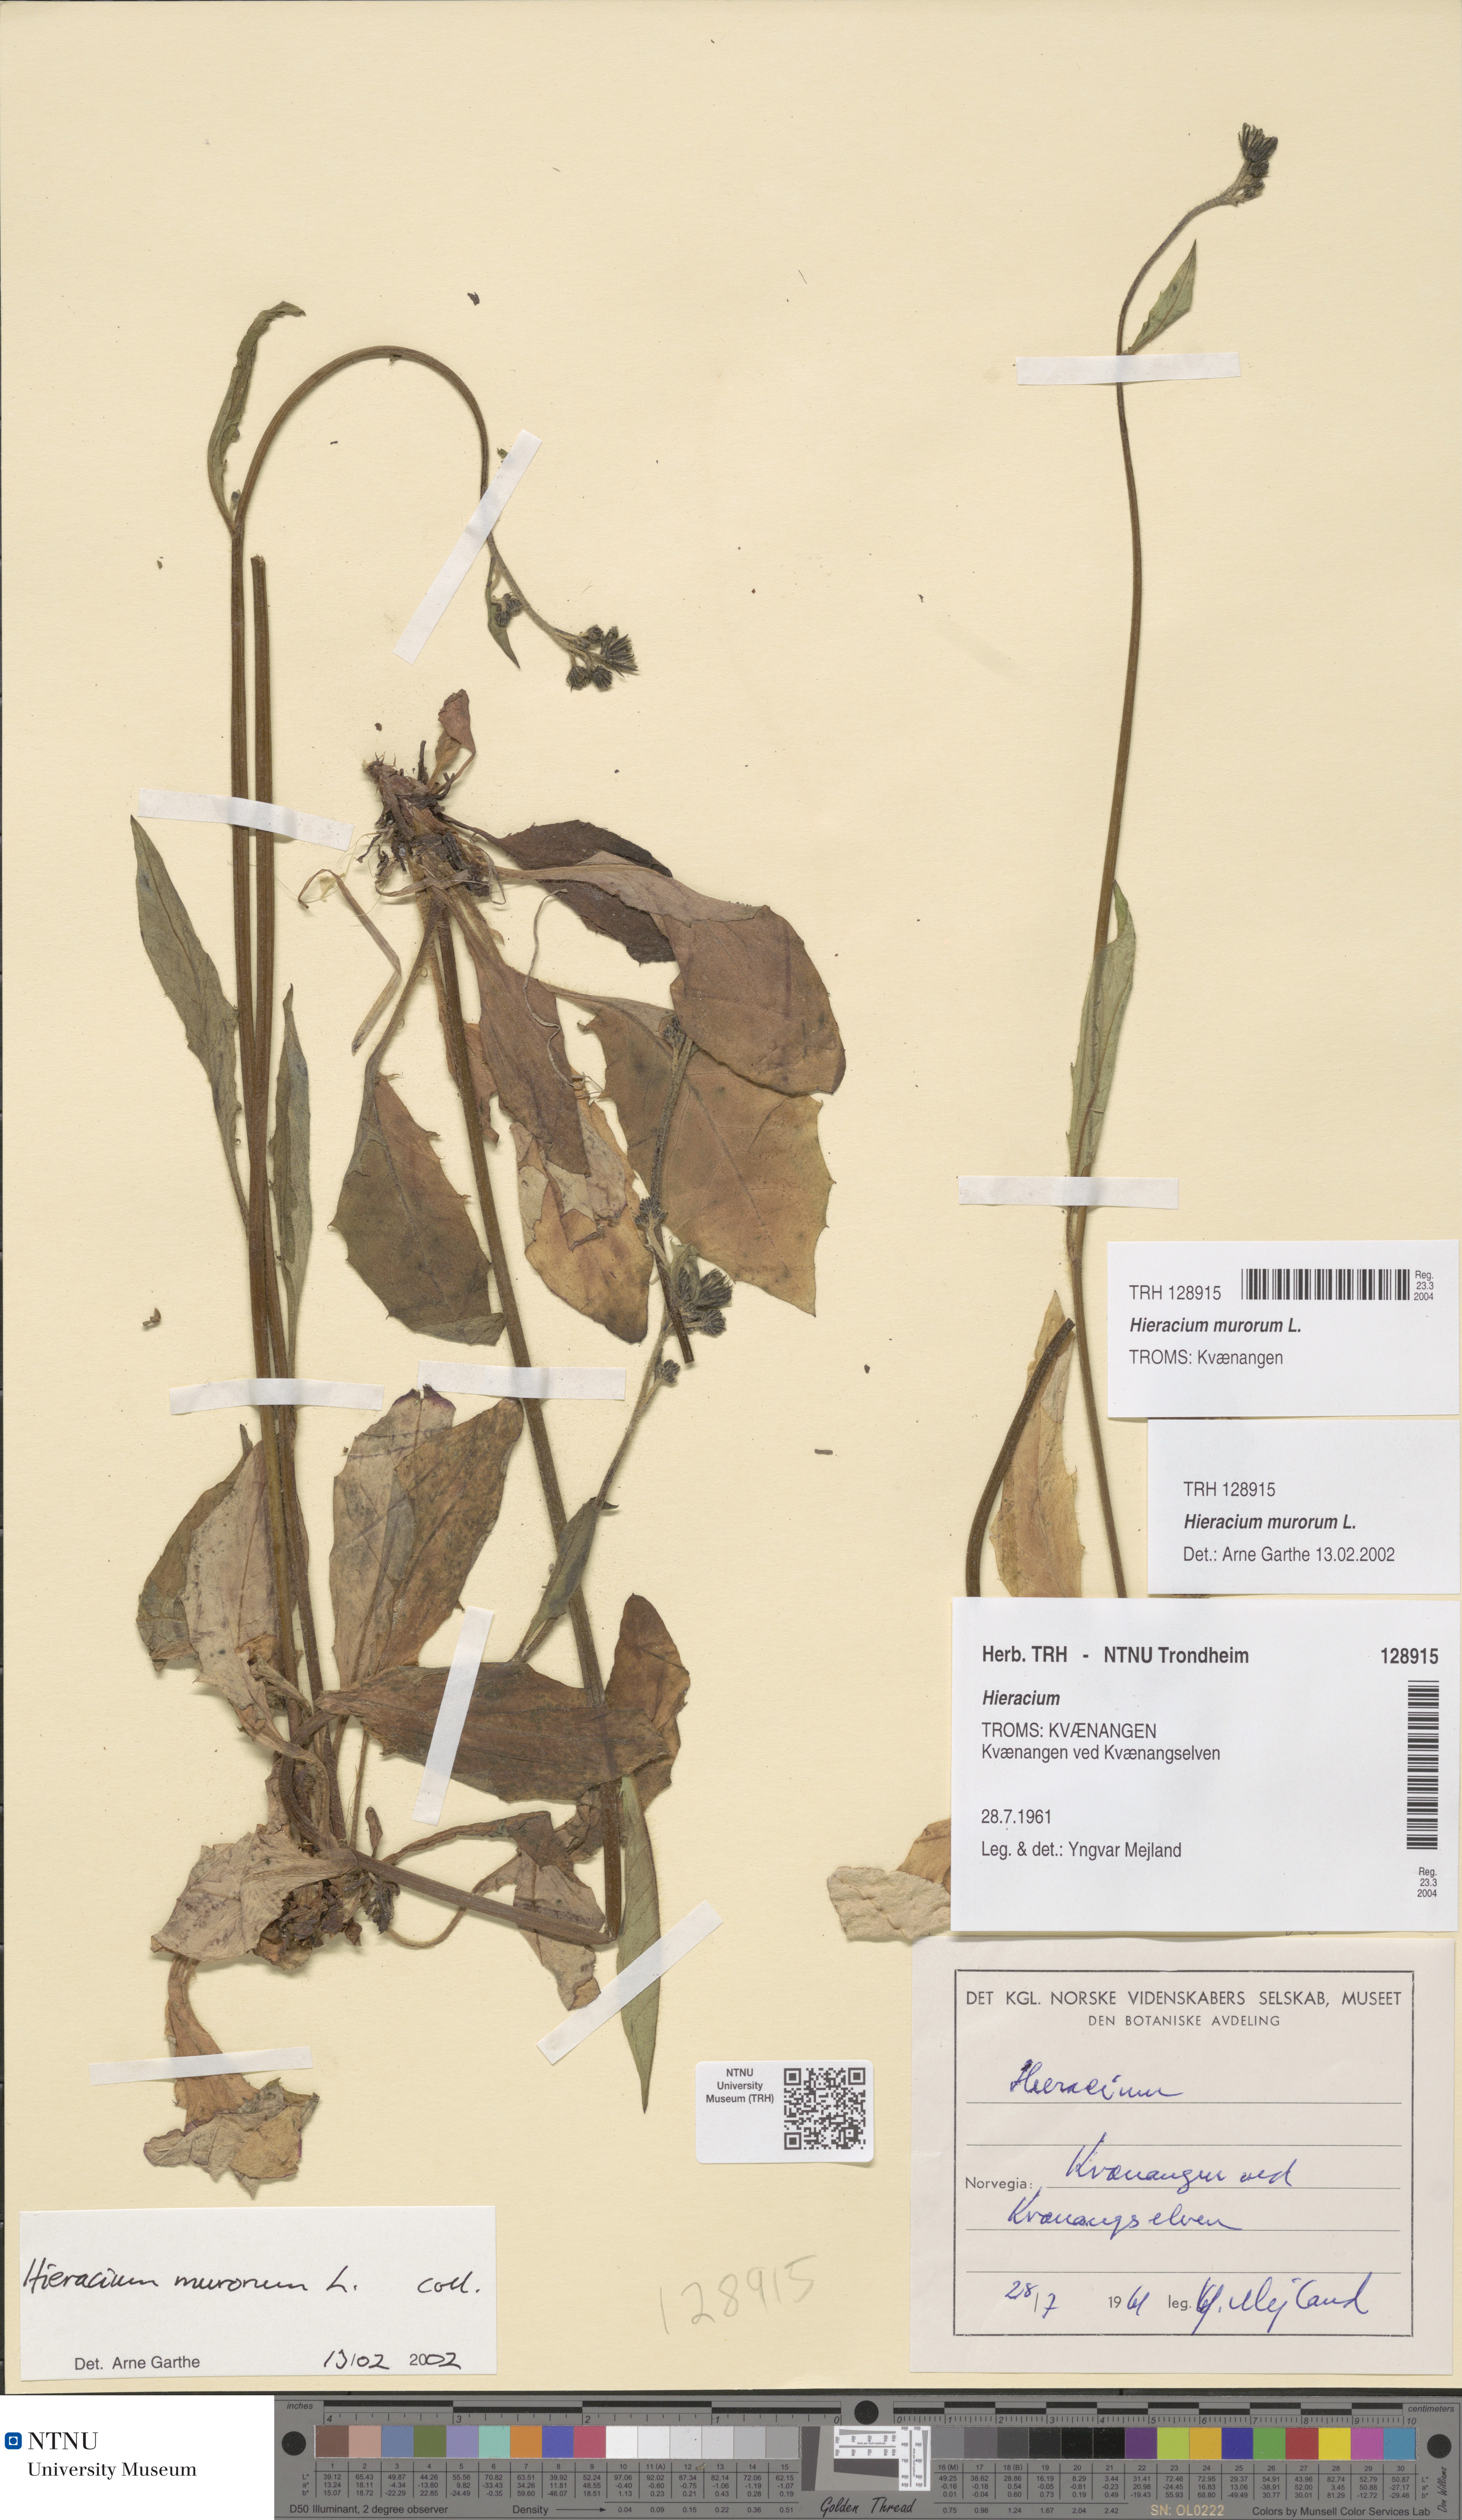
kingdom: Plantae
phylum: Tracheophyta
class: Magnoliopsida
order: Asterales
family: Asteraceae
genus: Hieracium
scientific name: Hieracium murorum
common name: Wall hawkweed
